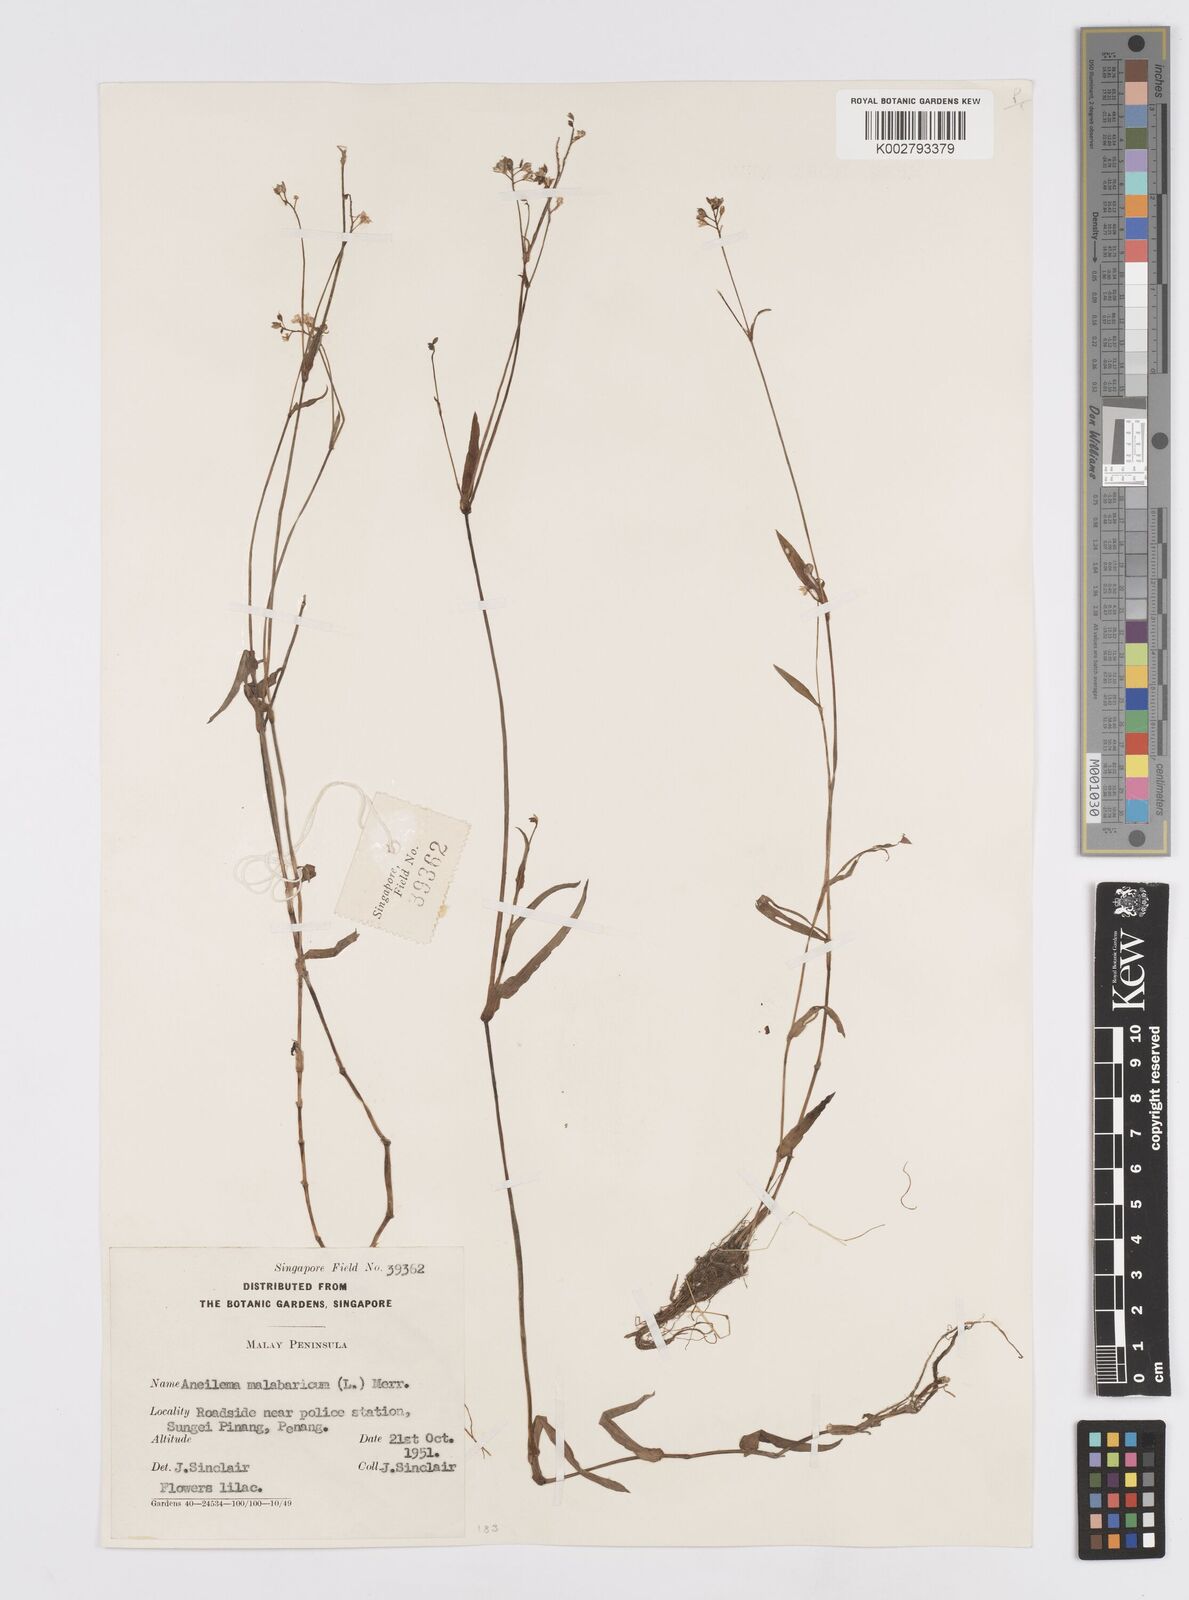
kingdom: Plantae
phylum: Tracheophyta
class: Liliopsida
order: Commelinales
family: Commelinaceae
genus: Murdannia
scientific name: Murdannia
